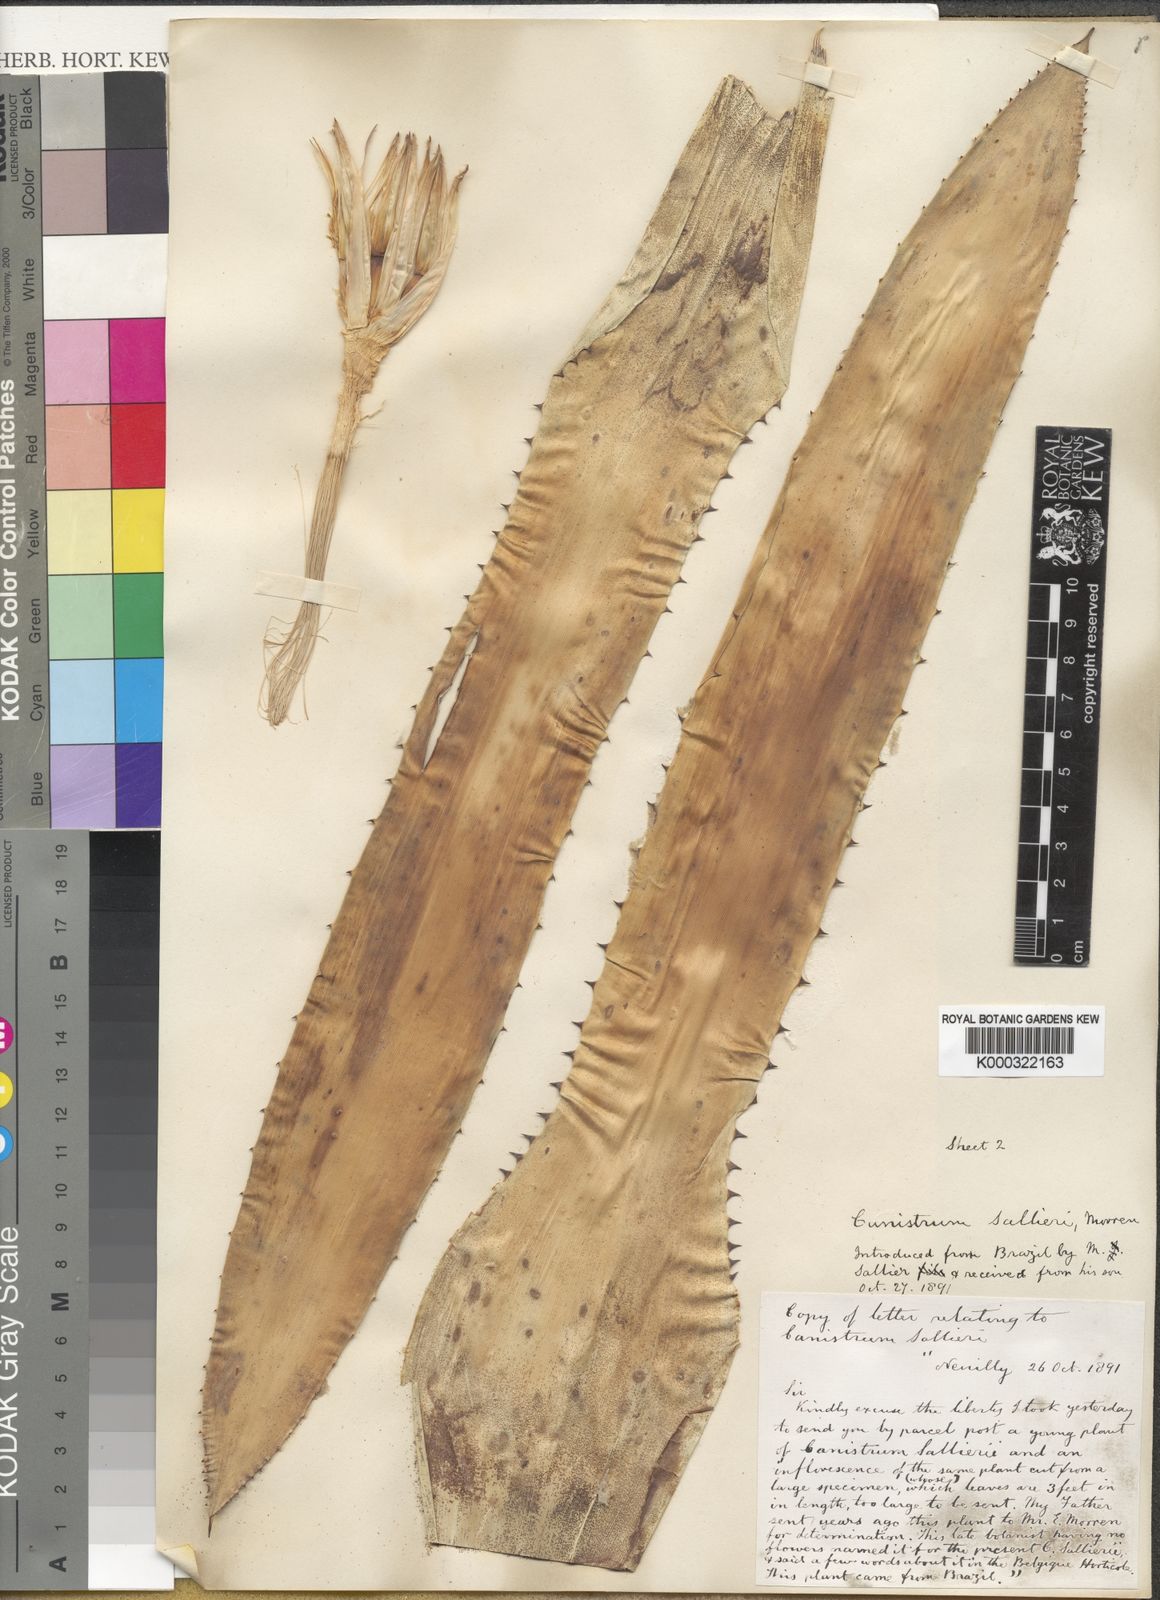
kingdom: Plantae
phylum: Tracheophyta
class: Liliopsida
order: Poales
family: Bromeliaceae
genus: Canistrum
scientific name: Canistrum
